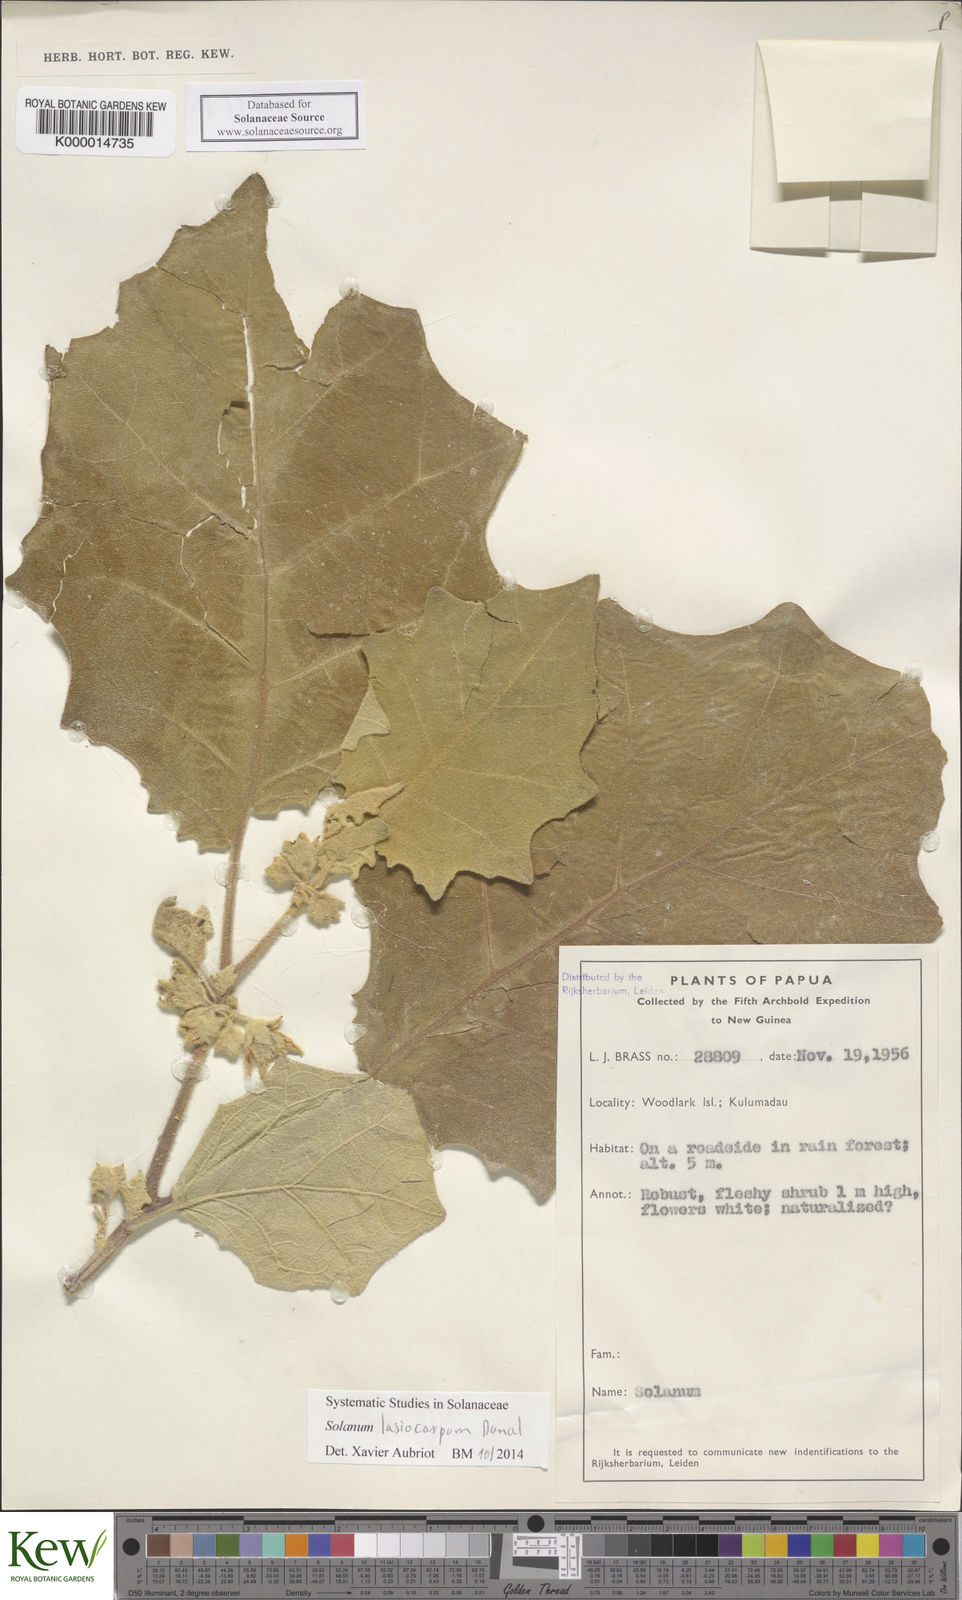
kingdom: Plantae
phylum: Tracheophyta
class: Magnoliopsida
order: Solanales
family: Solanaceae
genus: Solanum
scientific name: Solanum lasiocarpum
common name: Indian nightshade
